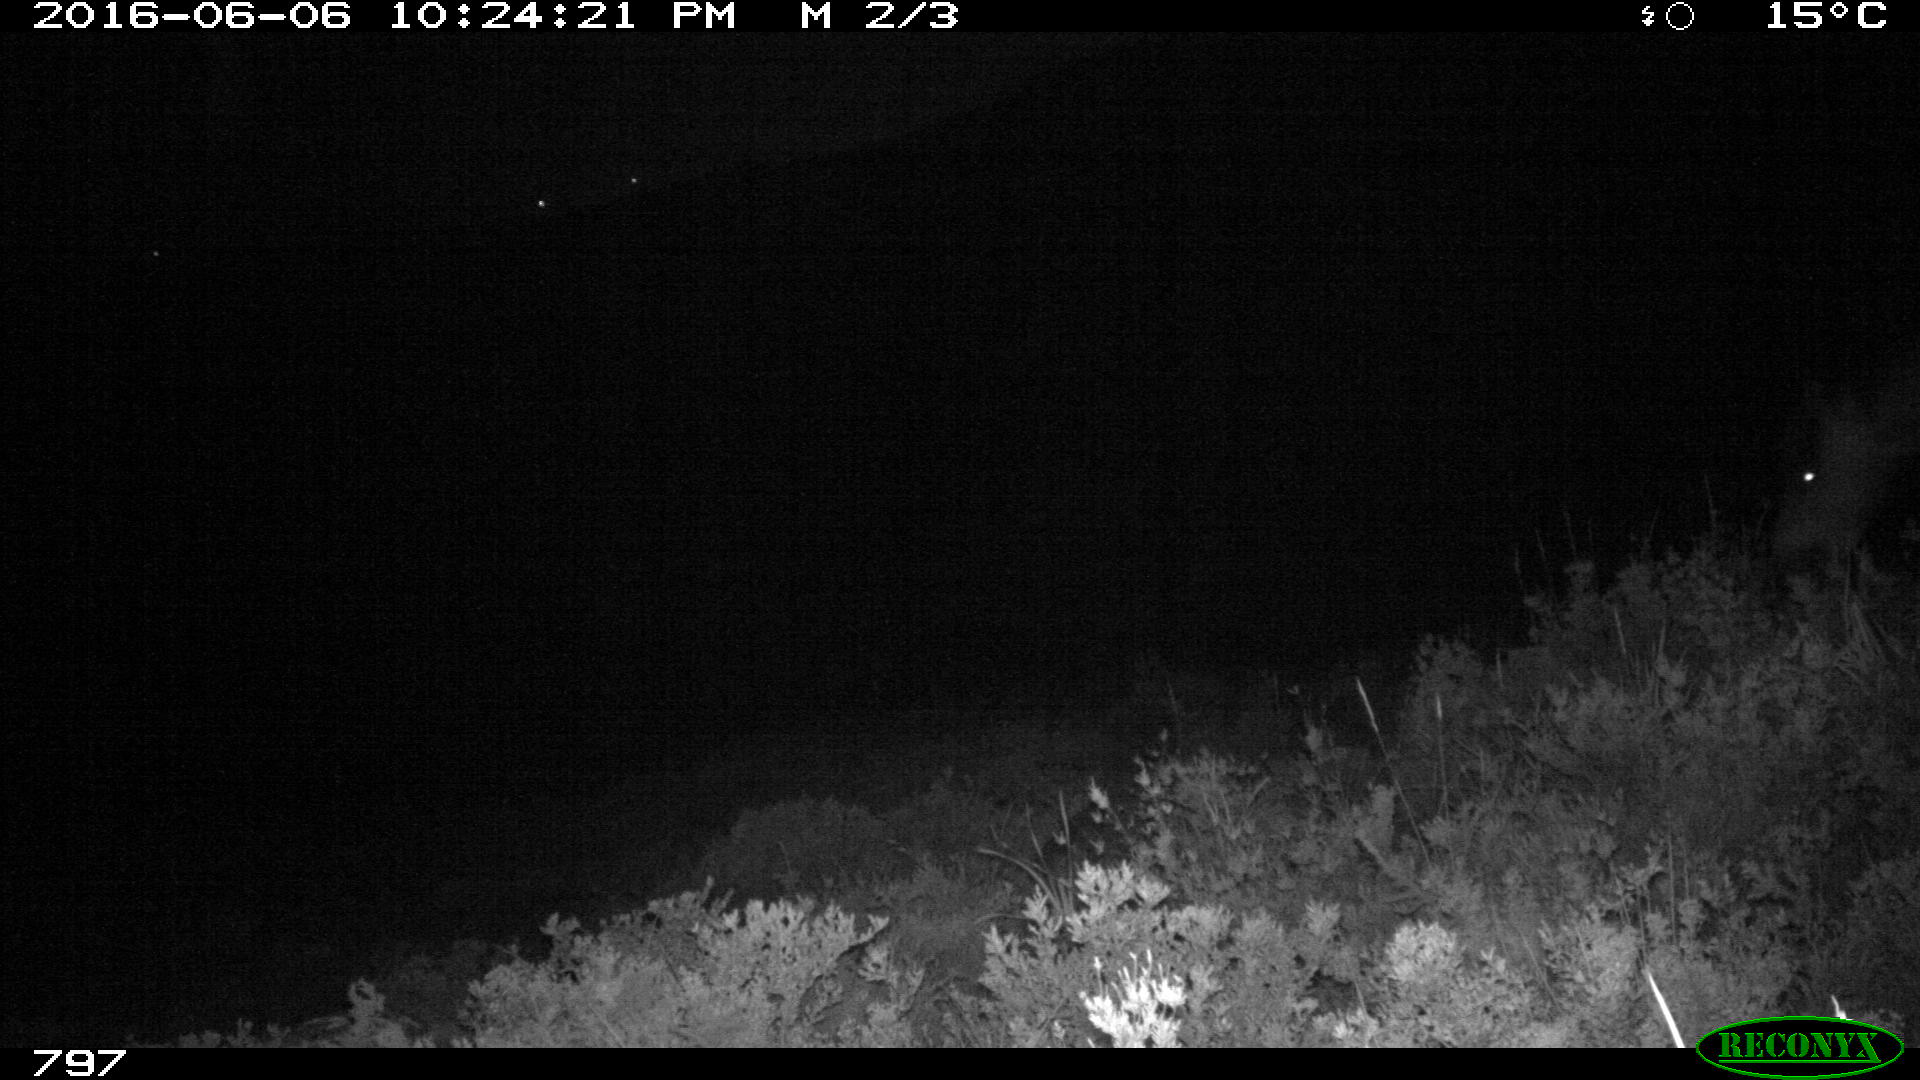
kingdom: Animalia
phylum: Chordata
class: Mammalia
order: Perissodactyla
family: Equidae
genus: Equus
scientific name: Equus caballus
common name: Horse
